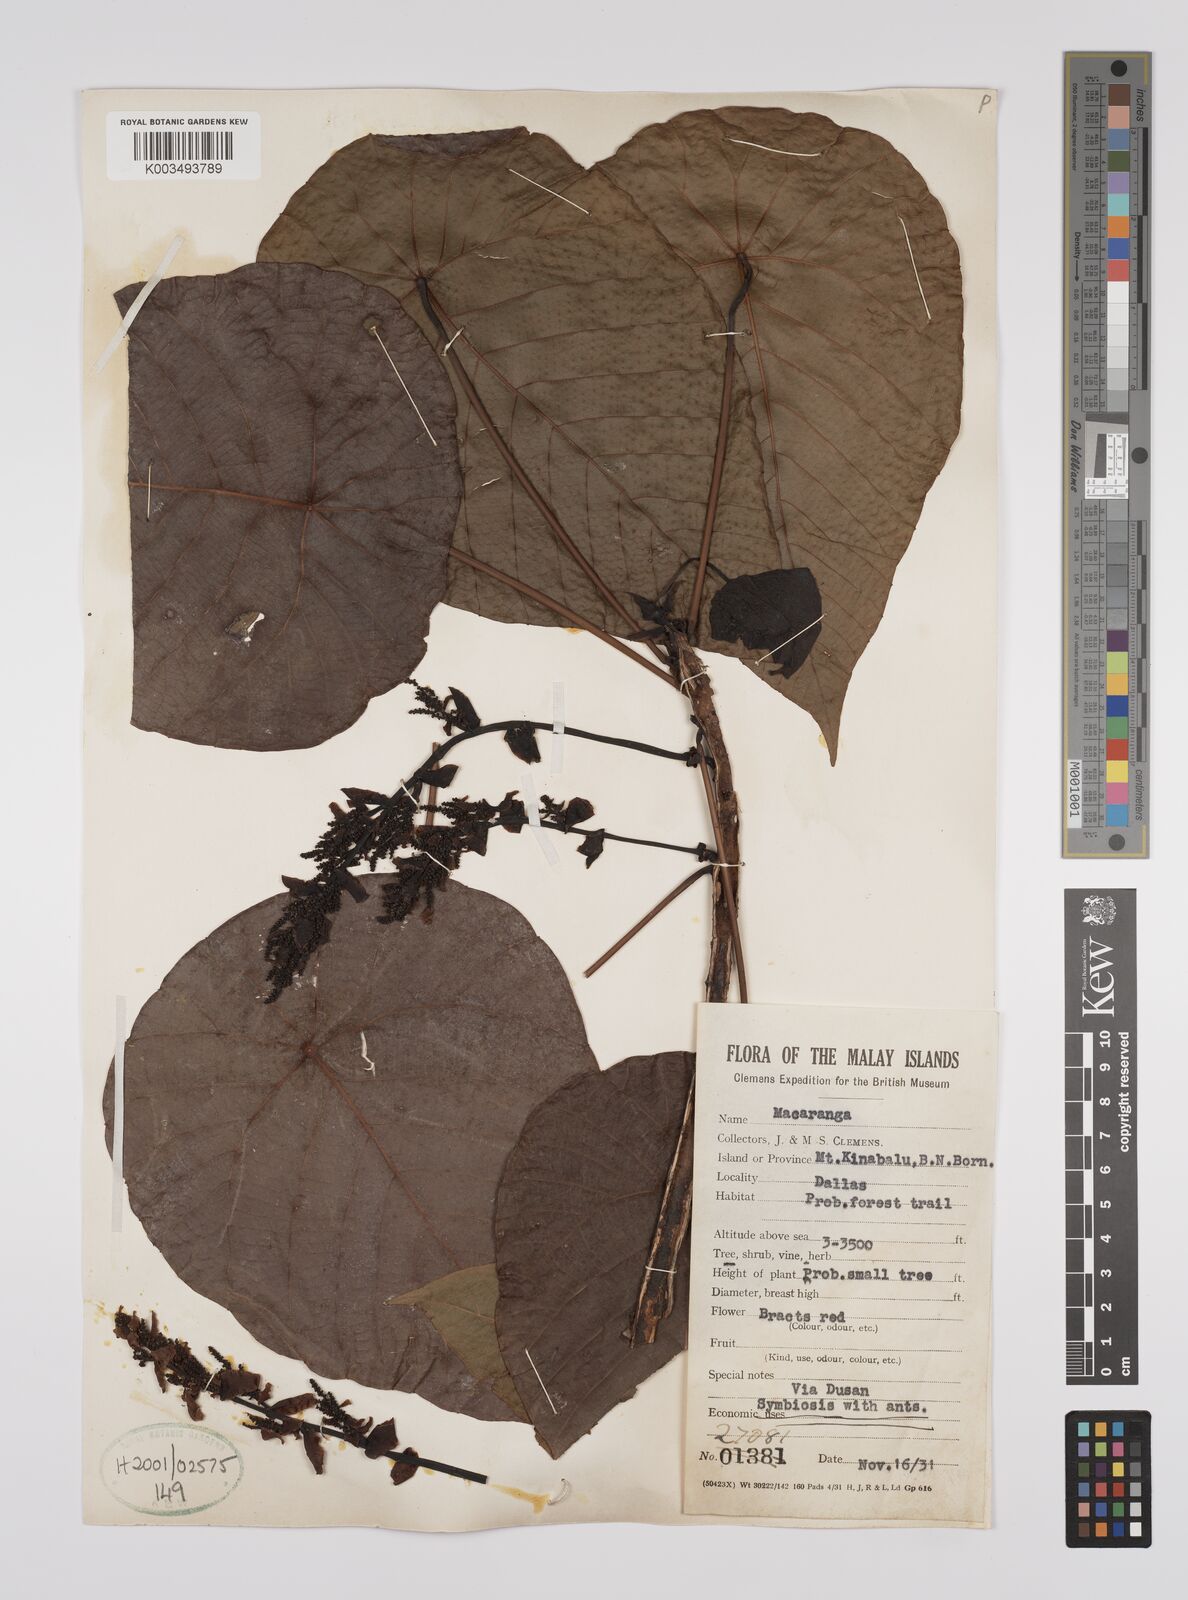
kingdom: Plantae
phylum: Tracheophyta
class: Magnoliopsida
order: Malpighiales
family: Euphorbiaceae
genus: Macaranga
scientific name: Macaranga winkleri
